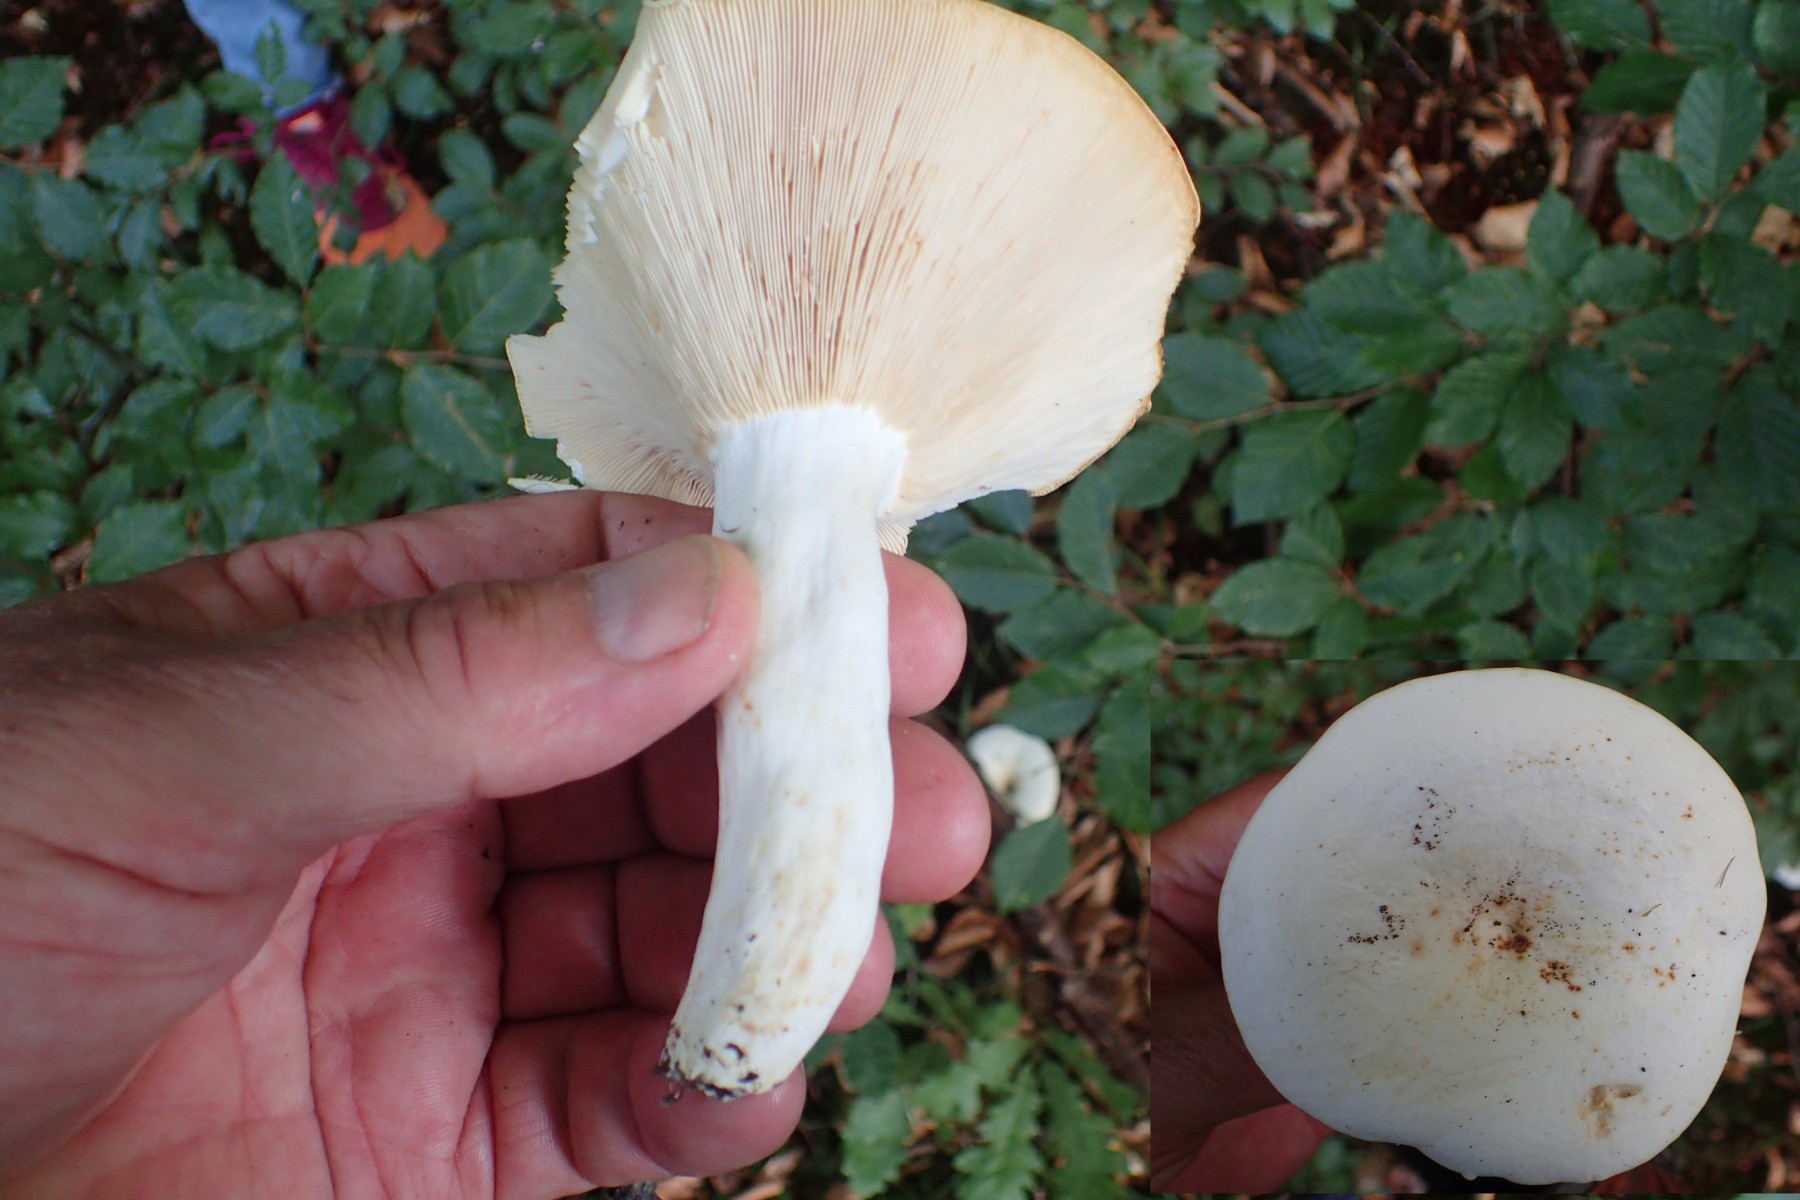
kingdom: Fungi
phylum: Basidiomycota
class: Agaricomycetes
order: Russulales
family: Russulaceae
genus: Lactifluus
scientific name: Lactifluus piperatus
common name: peber-mælkehat
